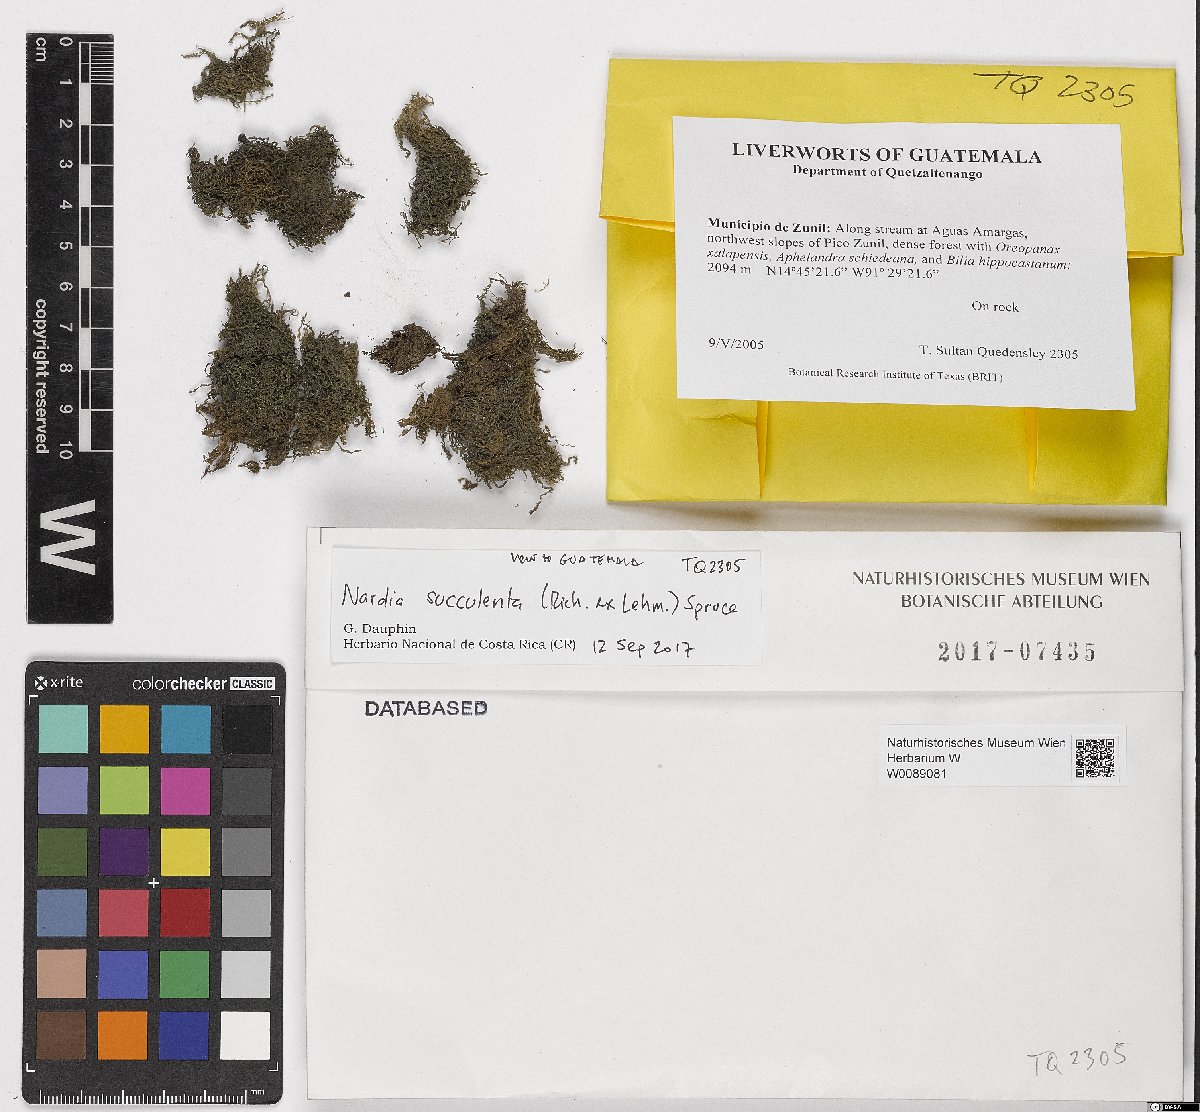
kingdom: Plantae
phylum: Marchantiophyta
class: Jungermanniopsida
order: Jungermanniales
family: Gymnomitriaceae
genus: Nardia
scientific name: Nardia succulenta
